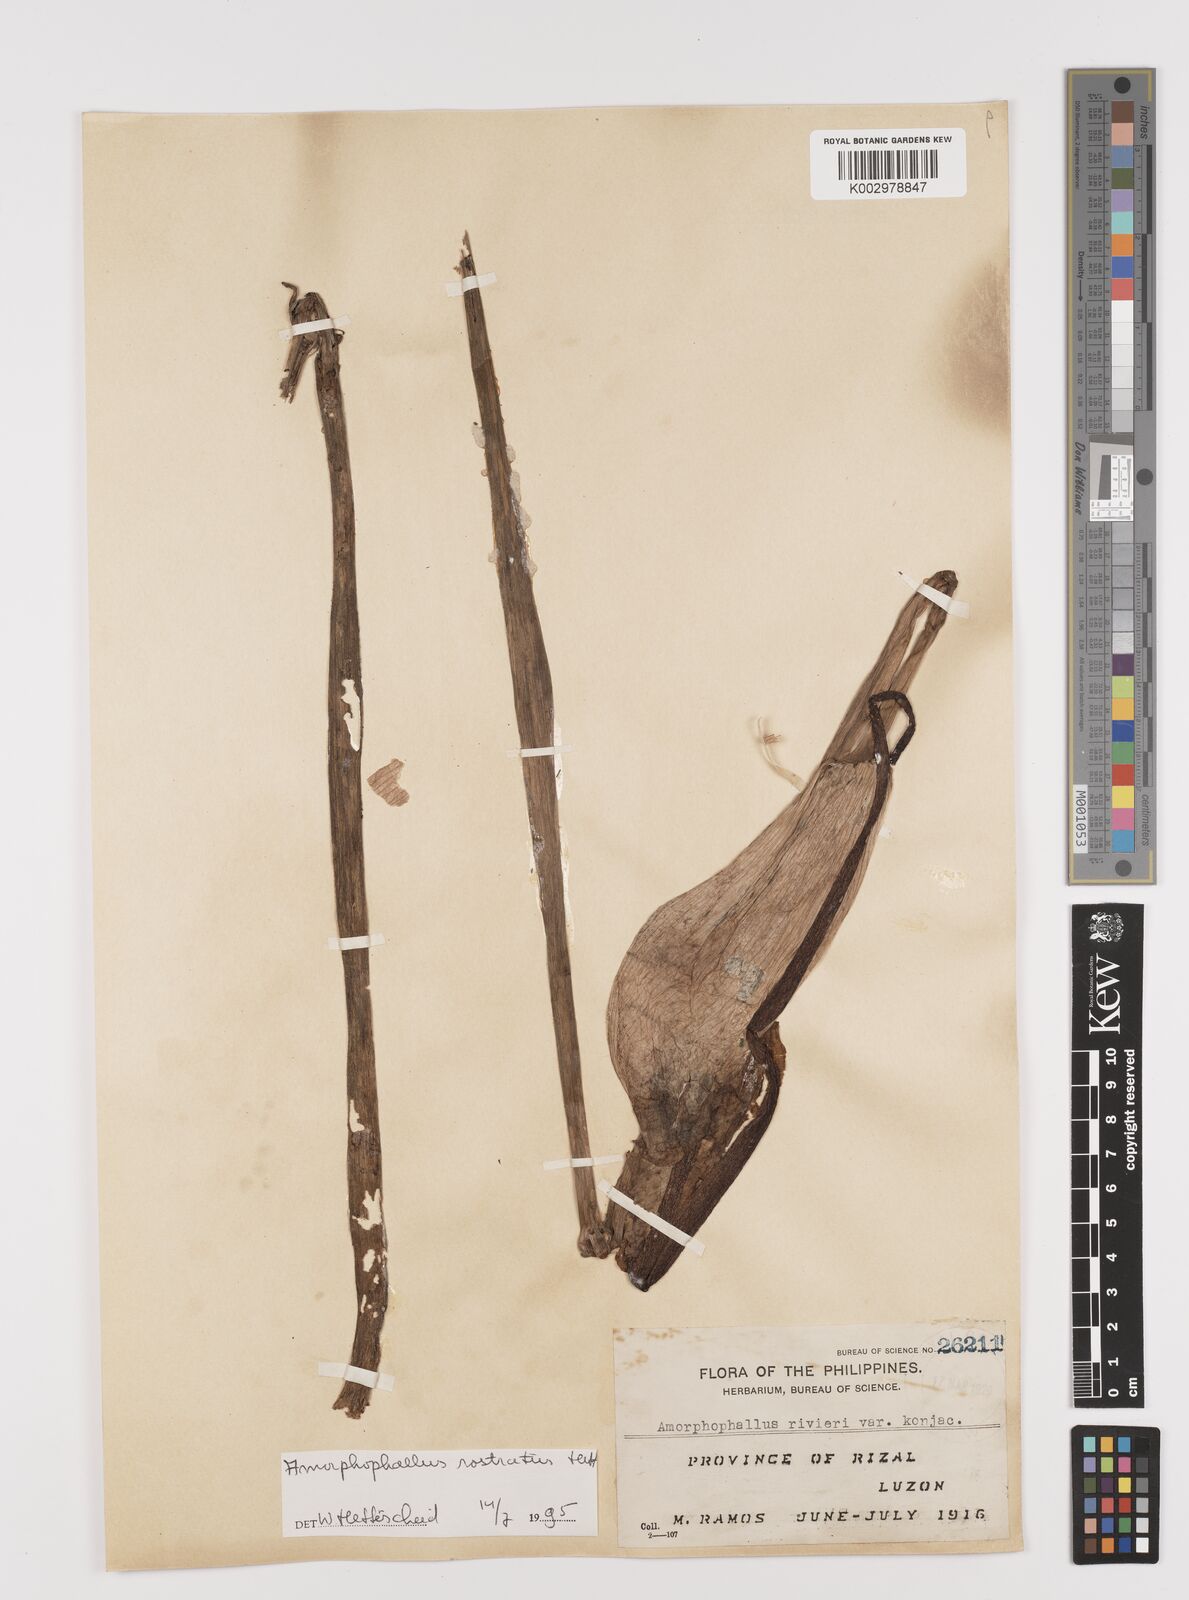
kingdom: Plantae
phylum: Tracheophyta
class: Liliopsida
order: Alismatales
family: Araceae
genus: Amorphophallus
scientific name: Amorphophallus rostratus
